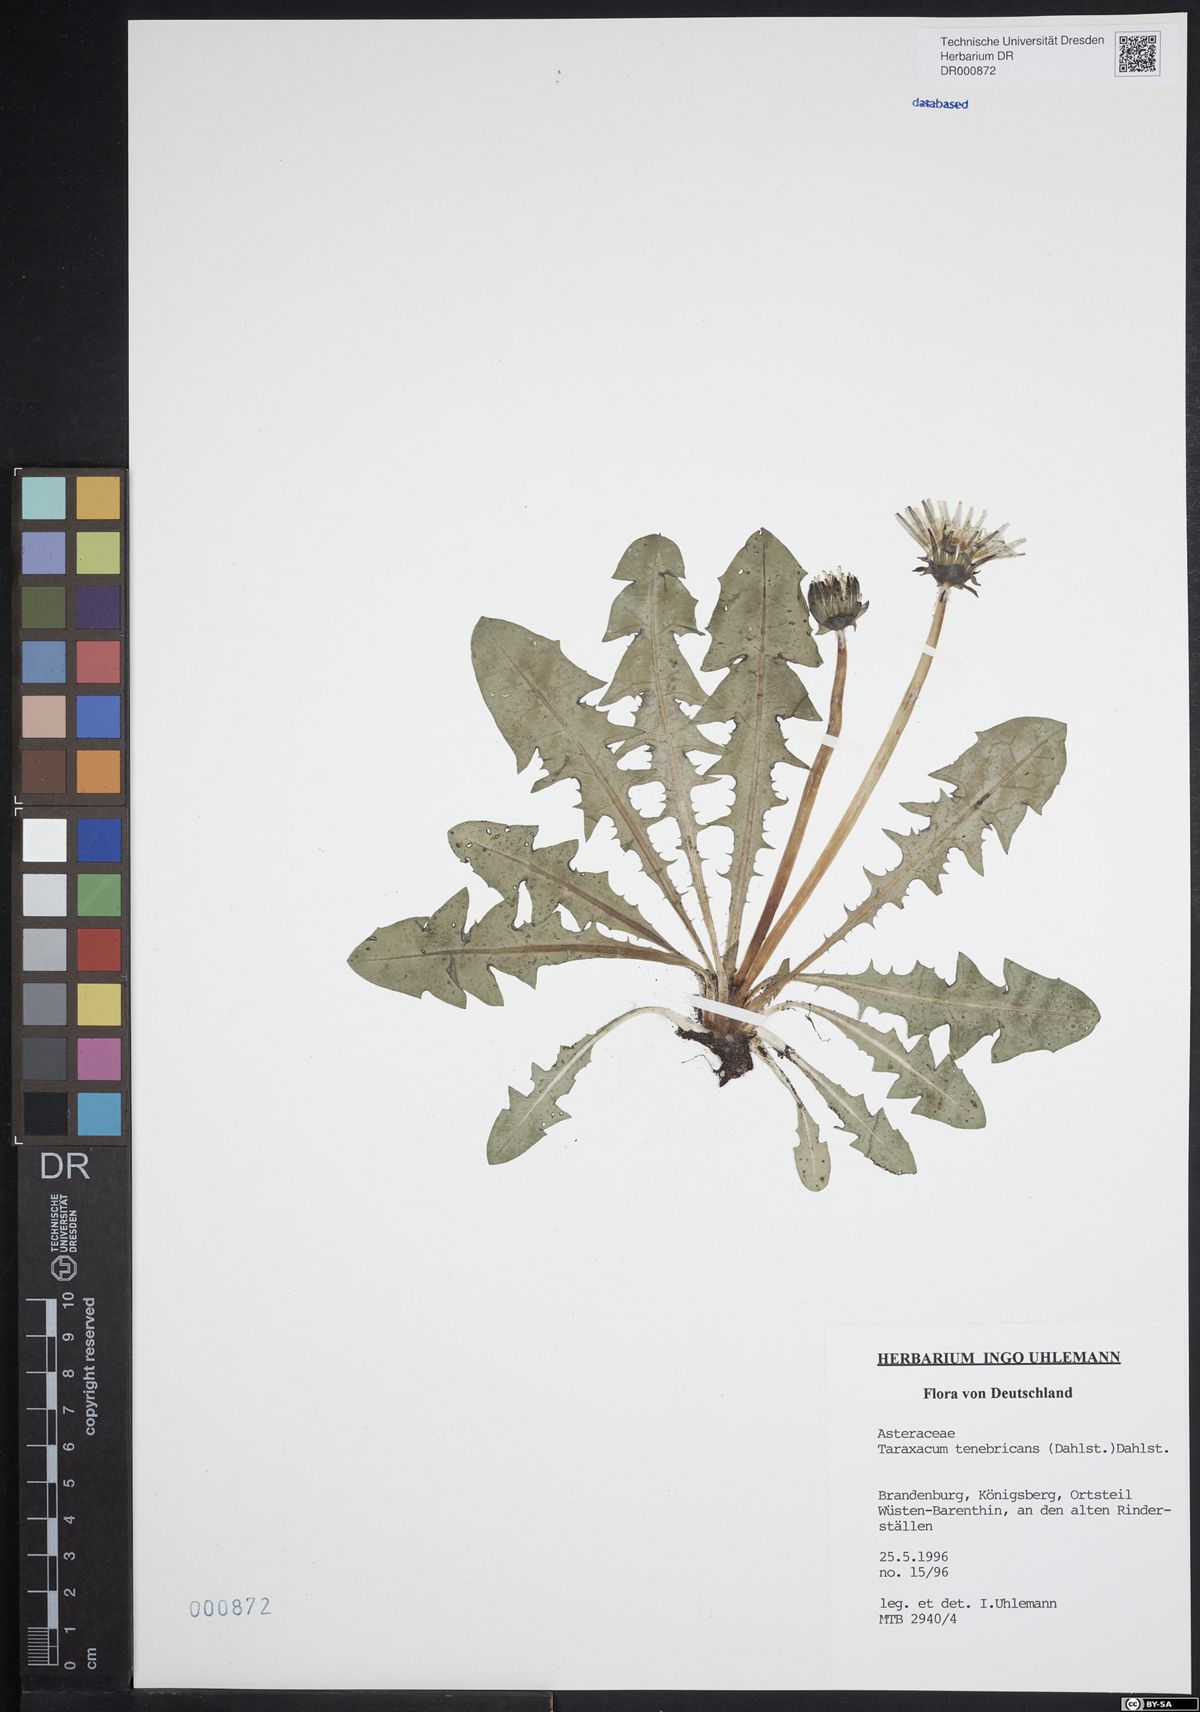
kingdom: Plantae
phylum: Tracheophyta
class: Magnoliopsida
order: Asterales
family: Asteraceae
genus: Taraxacum
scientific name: Taraxacum tenebricans
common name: Shiny-leaved dandelion
